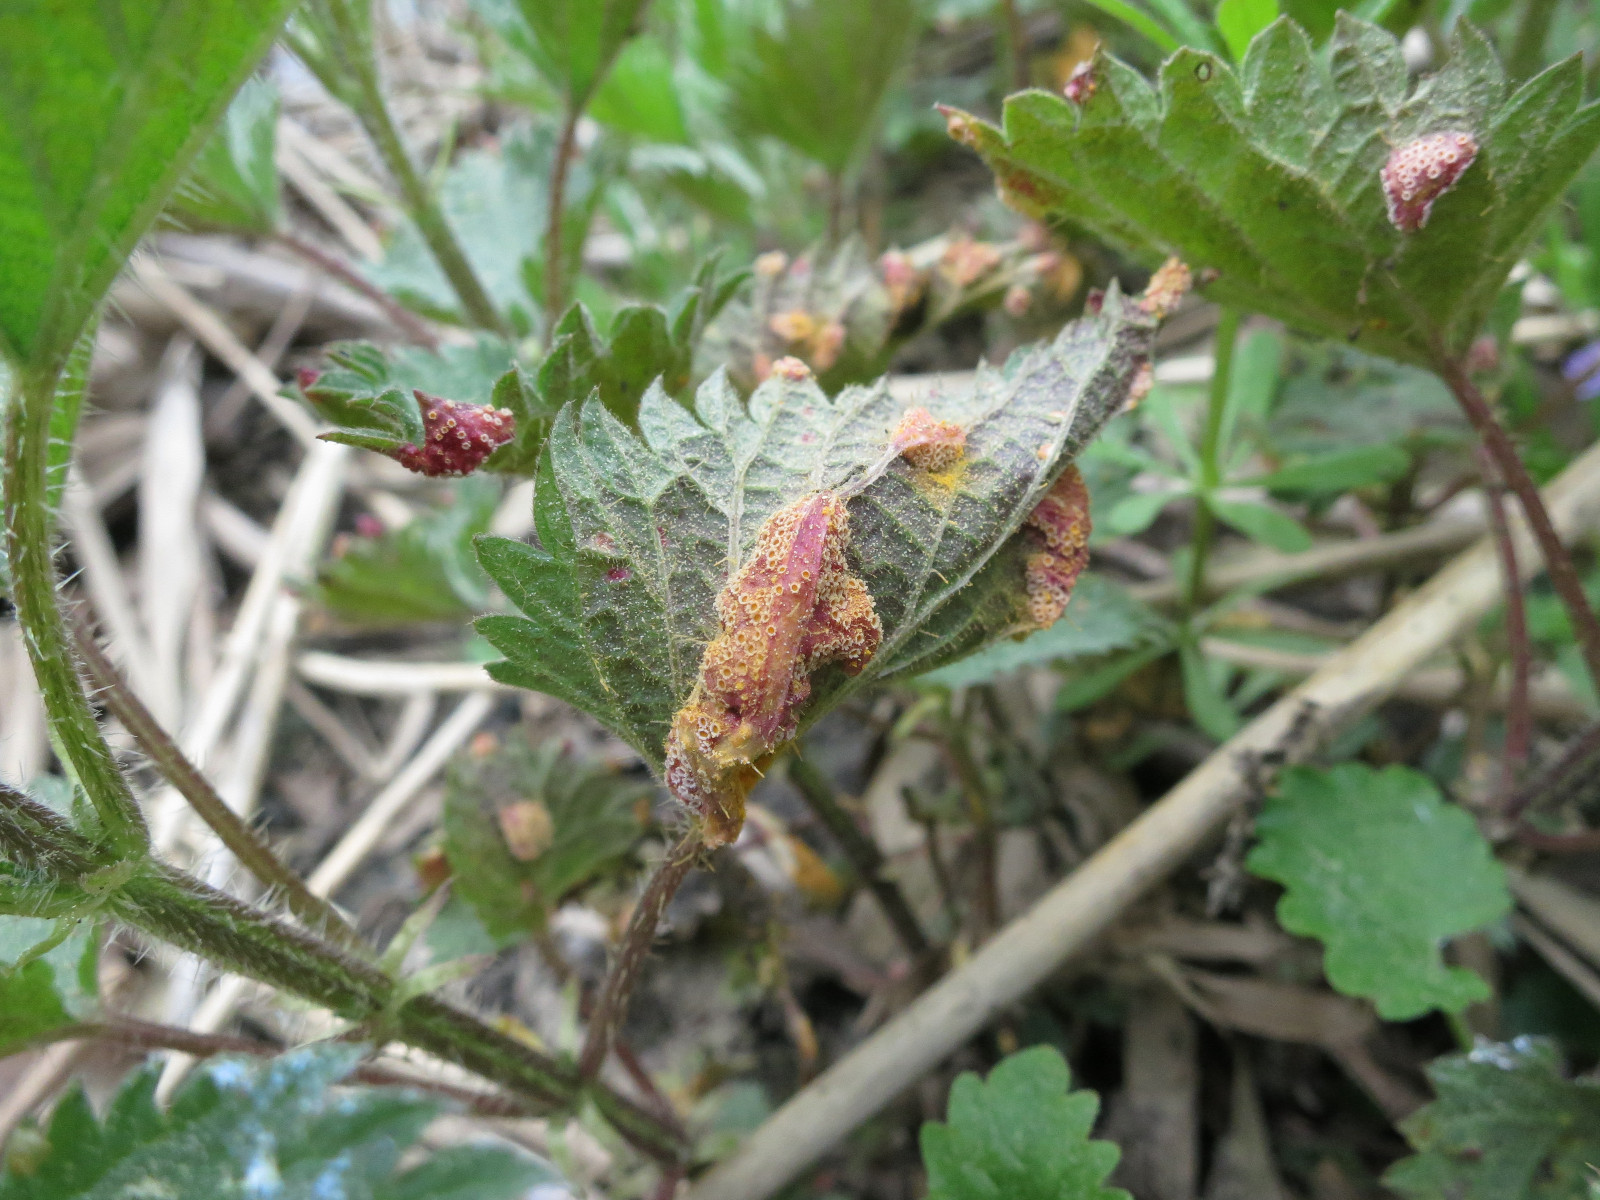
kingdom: Fungi
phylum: Basidiomycota
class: Pucciniomycetes
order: Pucciniales
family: Pucciniaceae
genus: Puccinia
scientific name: Puccinia urticata
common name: nældegalle-tvecellerust
